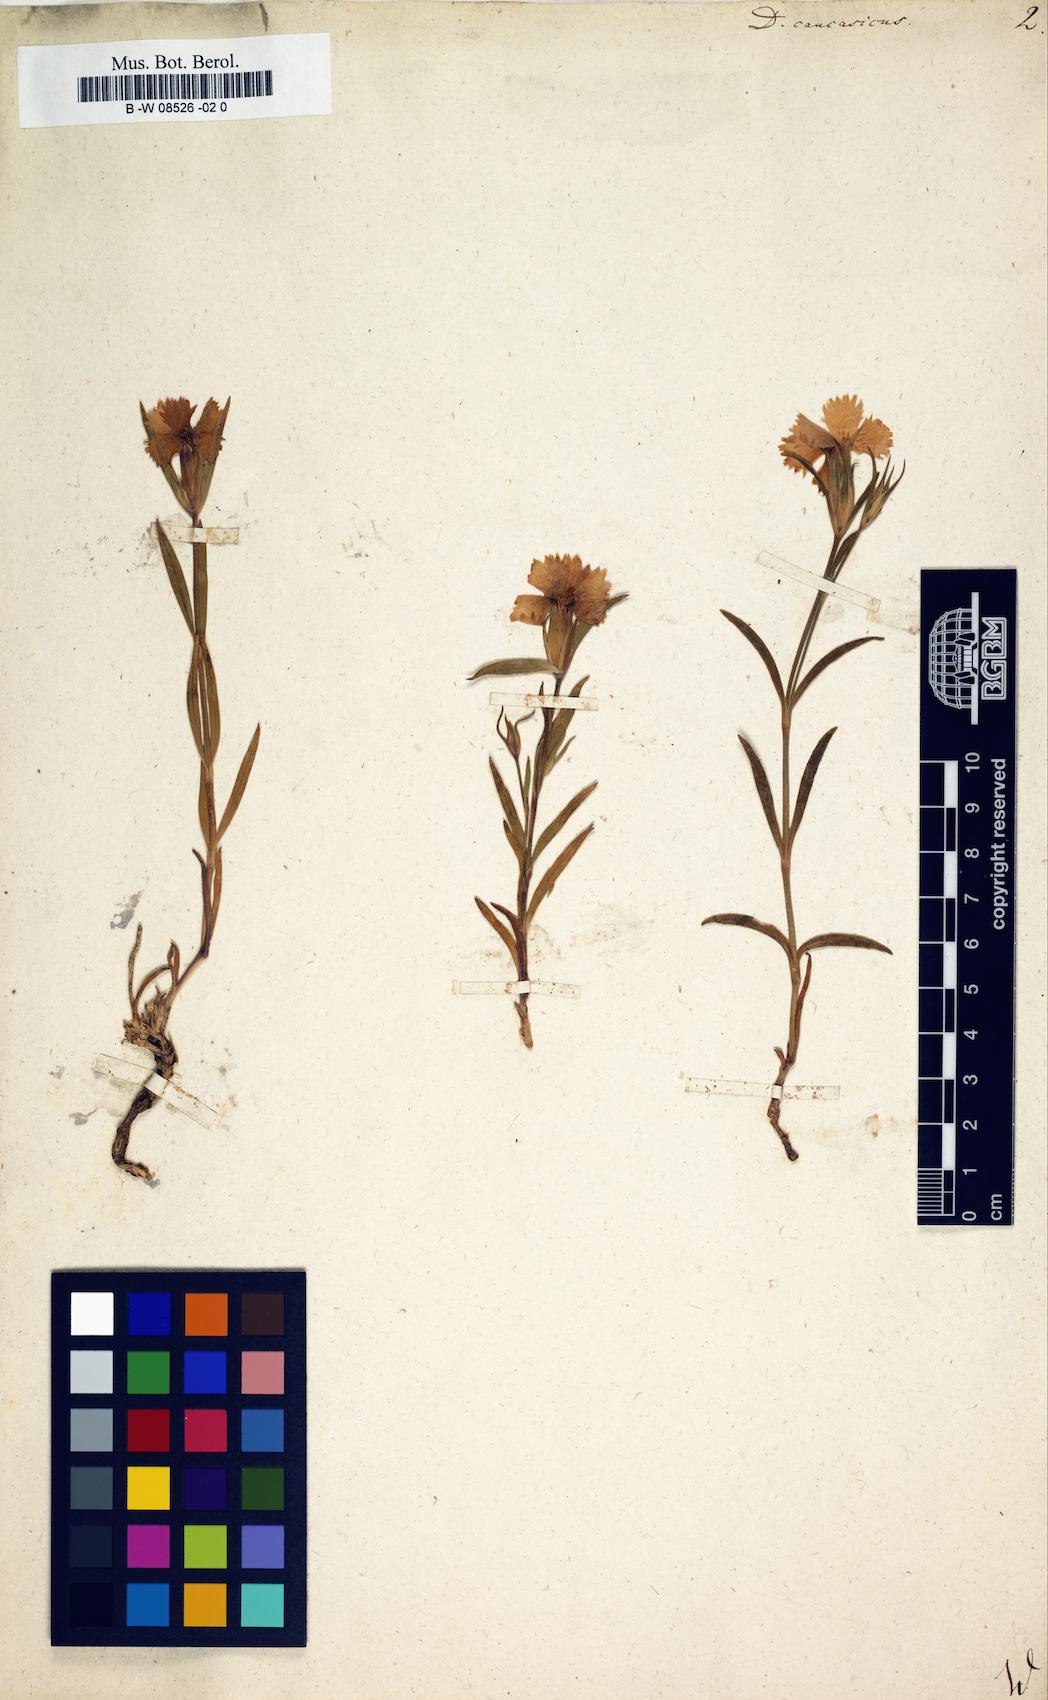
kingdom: Plantae
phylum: Tracheophyta
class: Magnoliopsida
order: Caryophyllales
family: Caryophyllaceae
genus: Dianthus
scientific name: Dianthus
